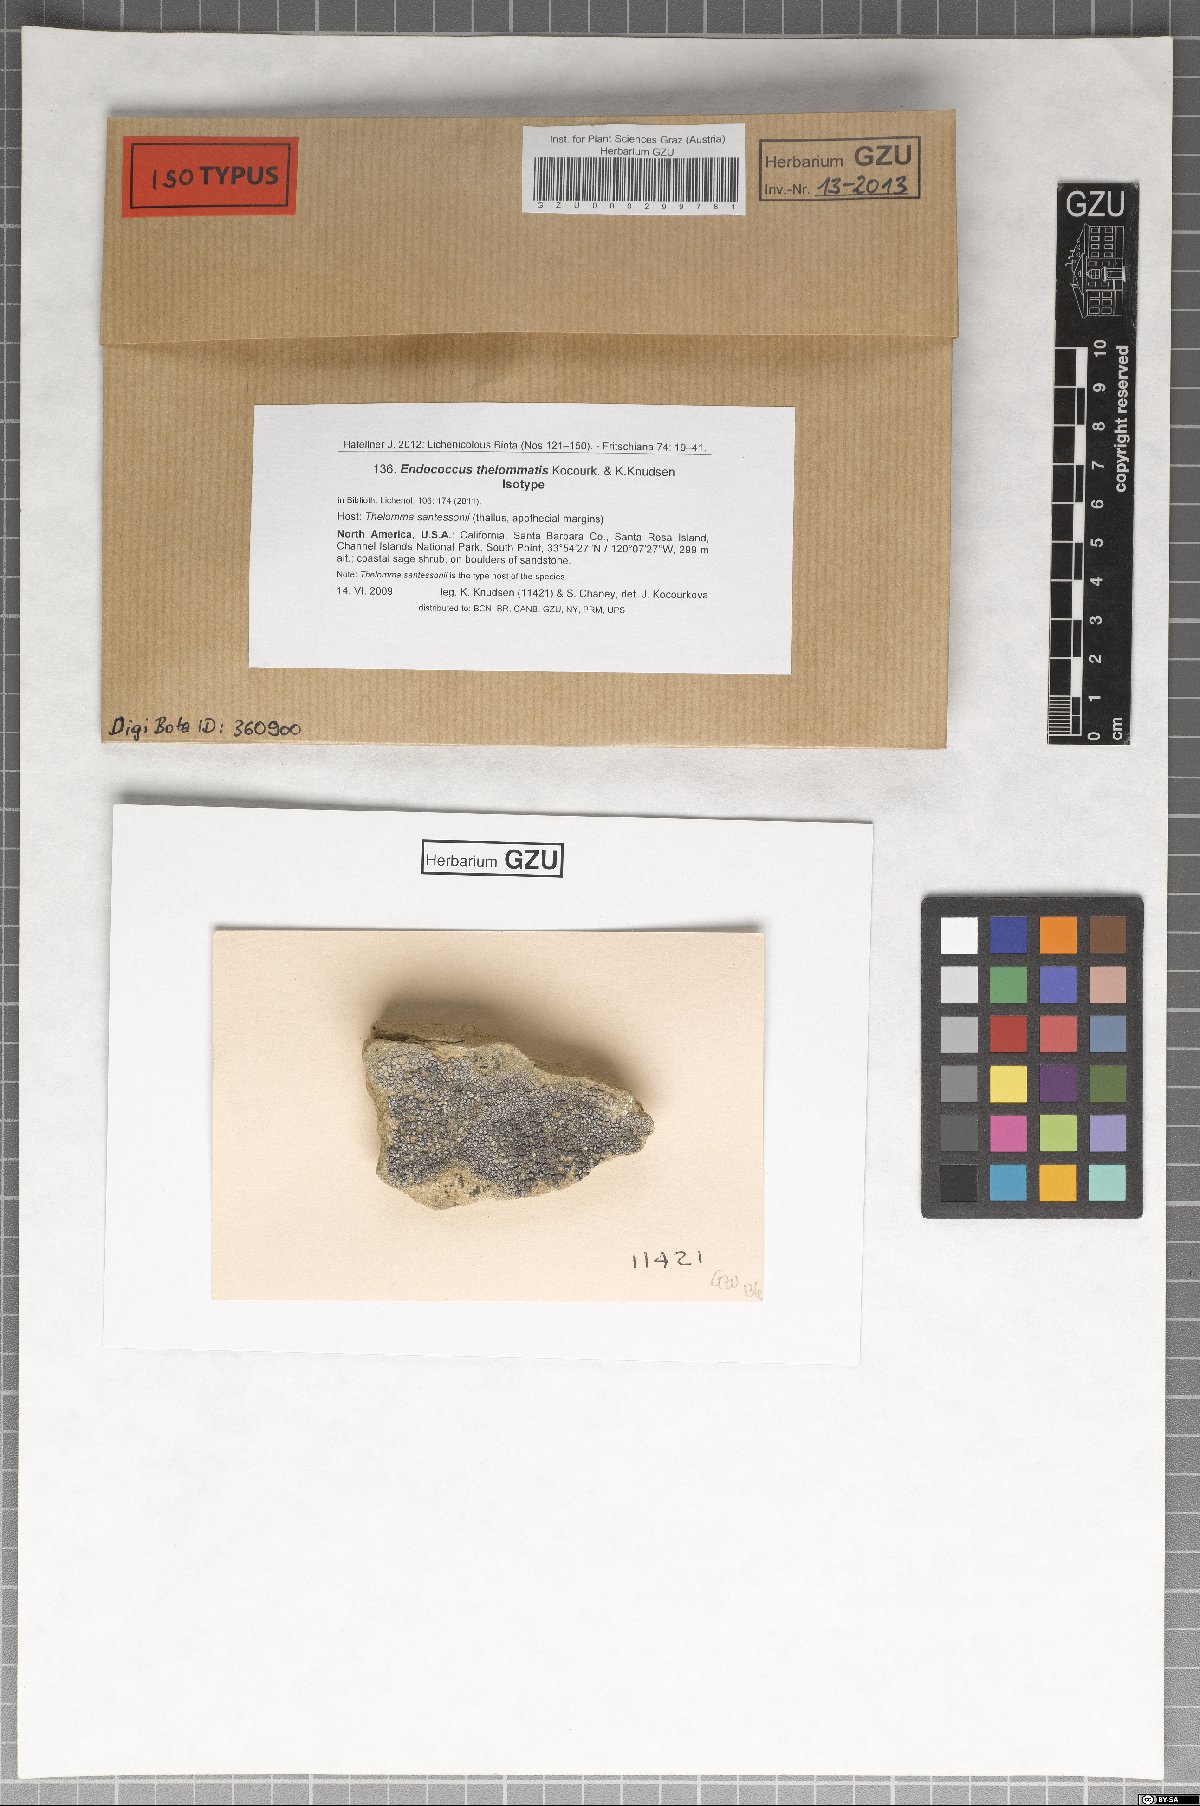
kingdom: Fungi
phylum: Ascomycota
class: Dothideomycetes
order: Dothideales
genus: Endococcus
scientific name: Endococcus thelommatis
